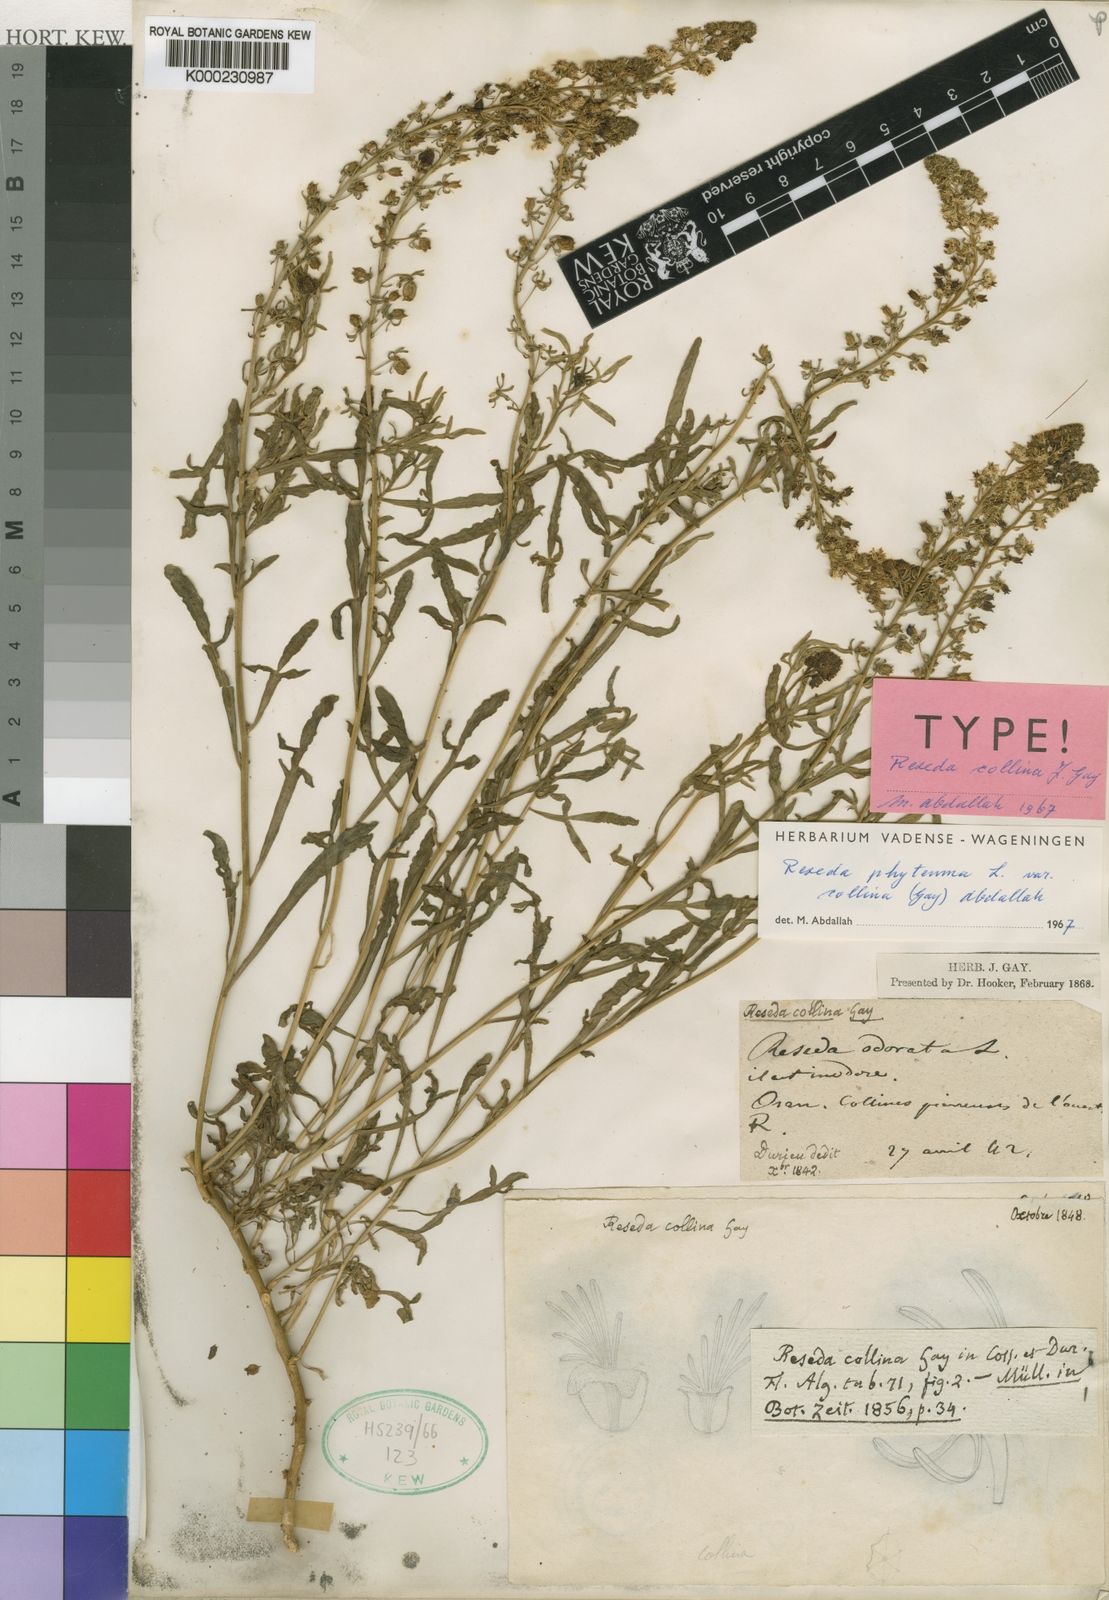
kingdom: Plantae
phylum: Tracheophyta
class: Magnoliopsida
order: Brassicales
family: Resedaceae
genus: Reseda
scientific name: Reseda
